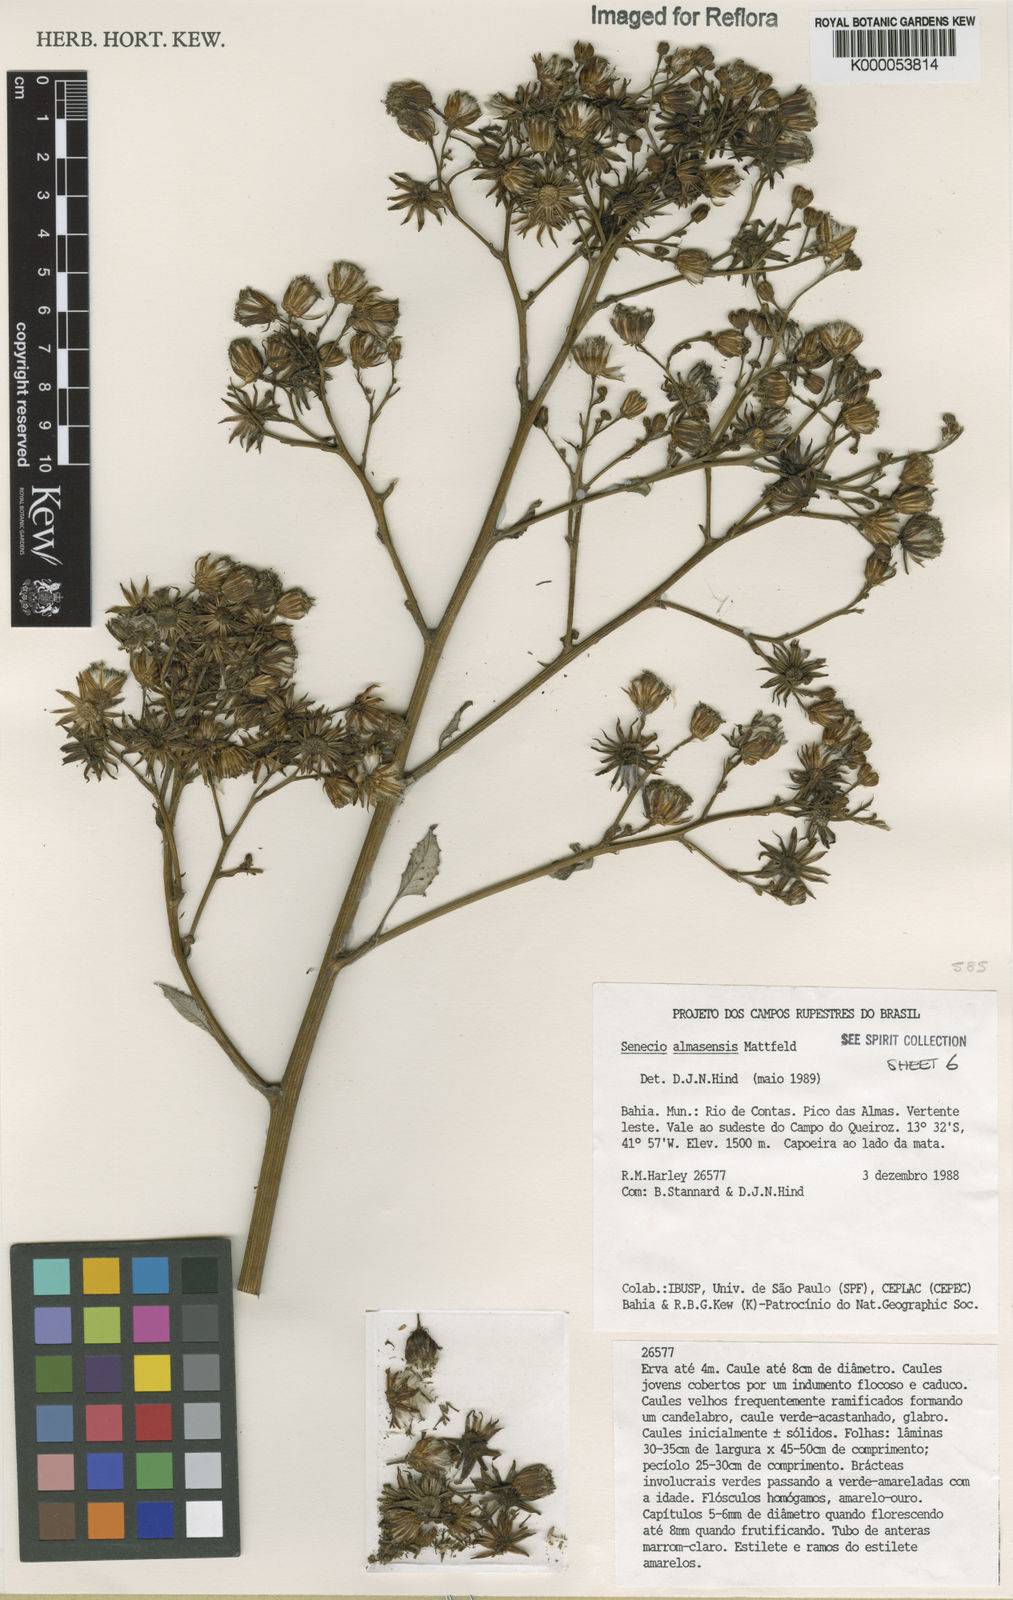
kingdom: Plantae
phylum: Tracheophyta
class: Magnoliopsida
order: Asterales
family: Asteraceae
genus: Senecio
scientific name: Senecio almasensis
